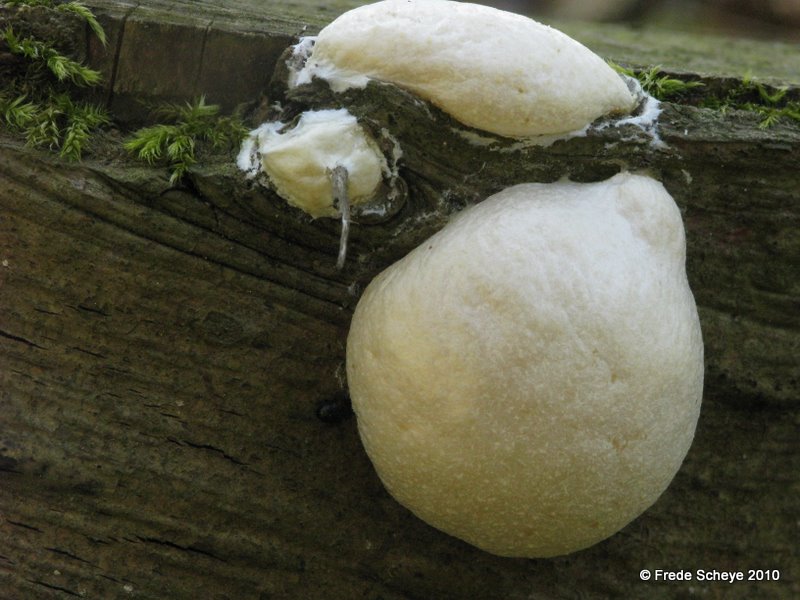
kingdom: Protozoa
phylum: Mycetozoa
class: Myxomycetes
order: Cribrariales
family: Tubiferaceae
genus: Reticularia
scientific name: Reticularia lycoperdon
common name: skinnende støvpude
